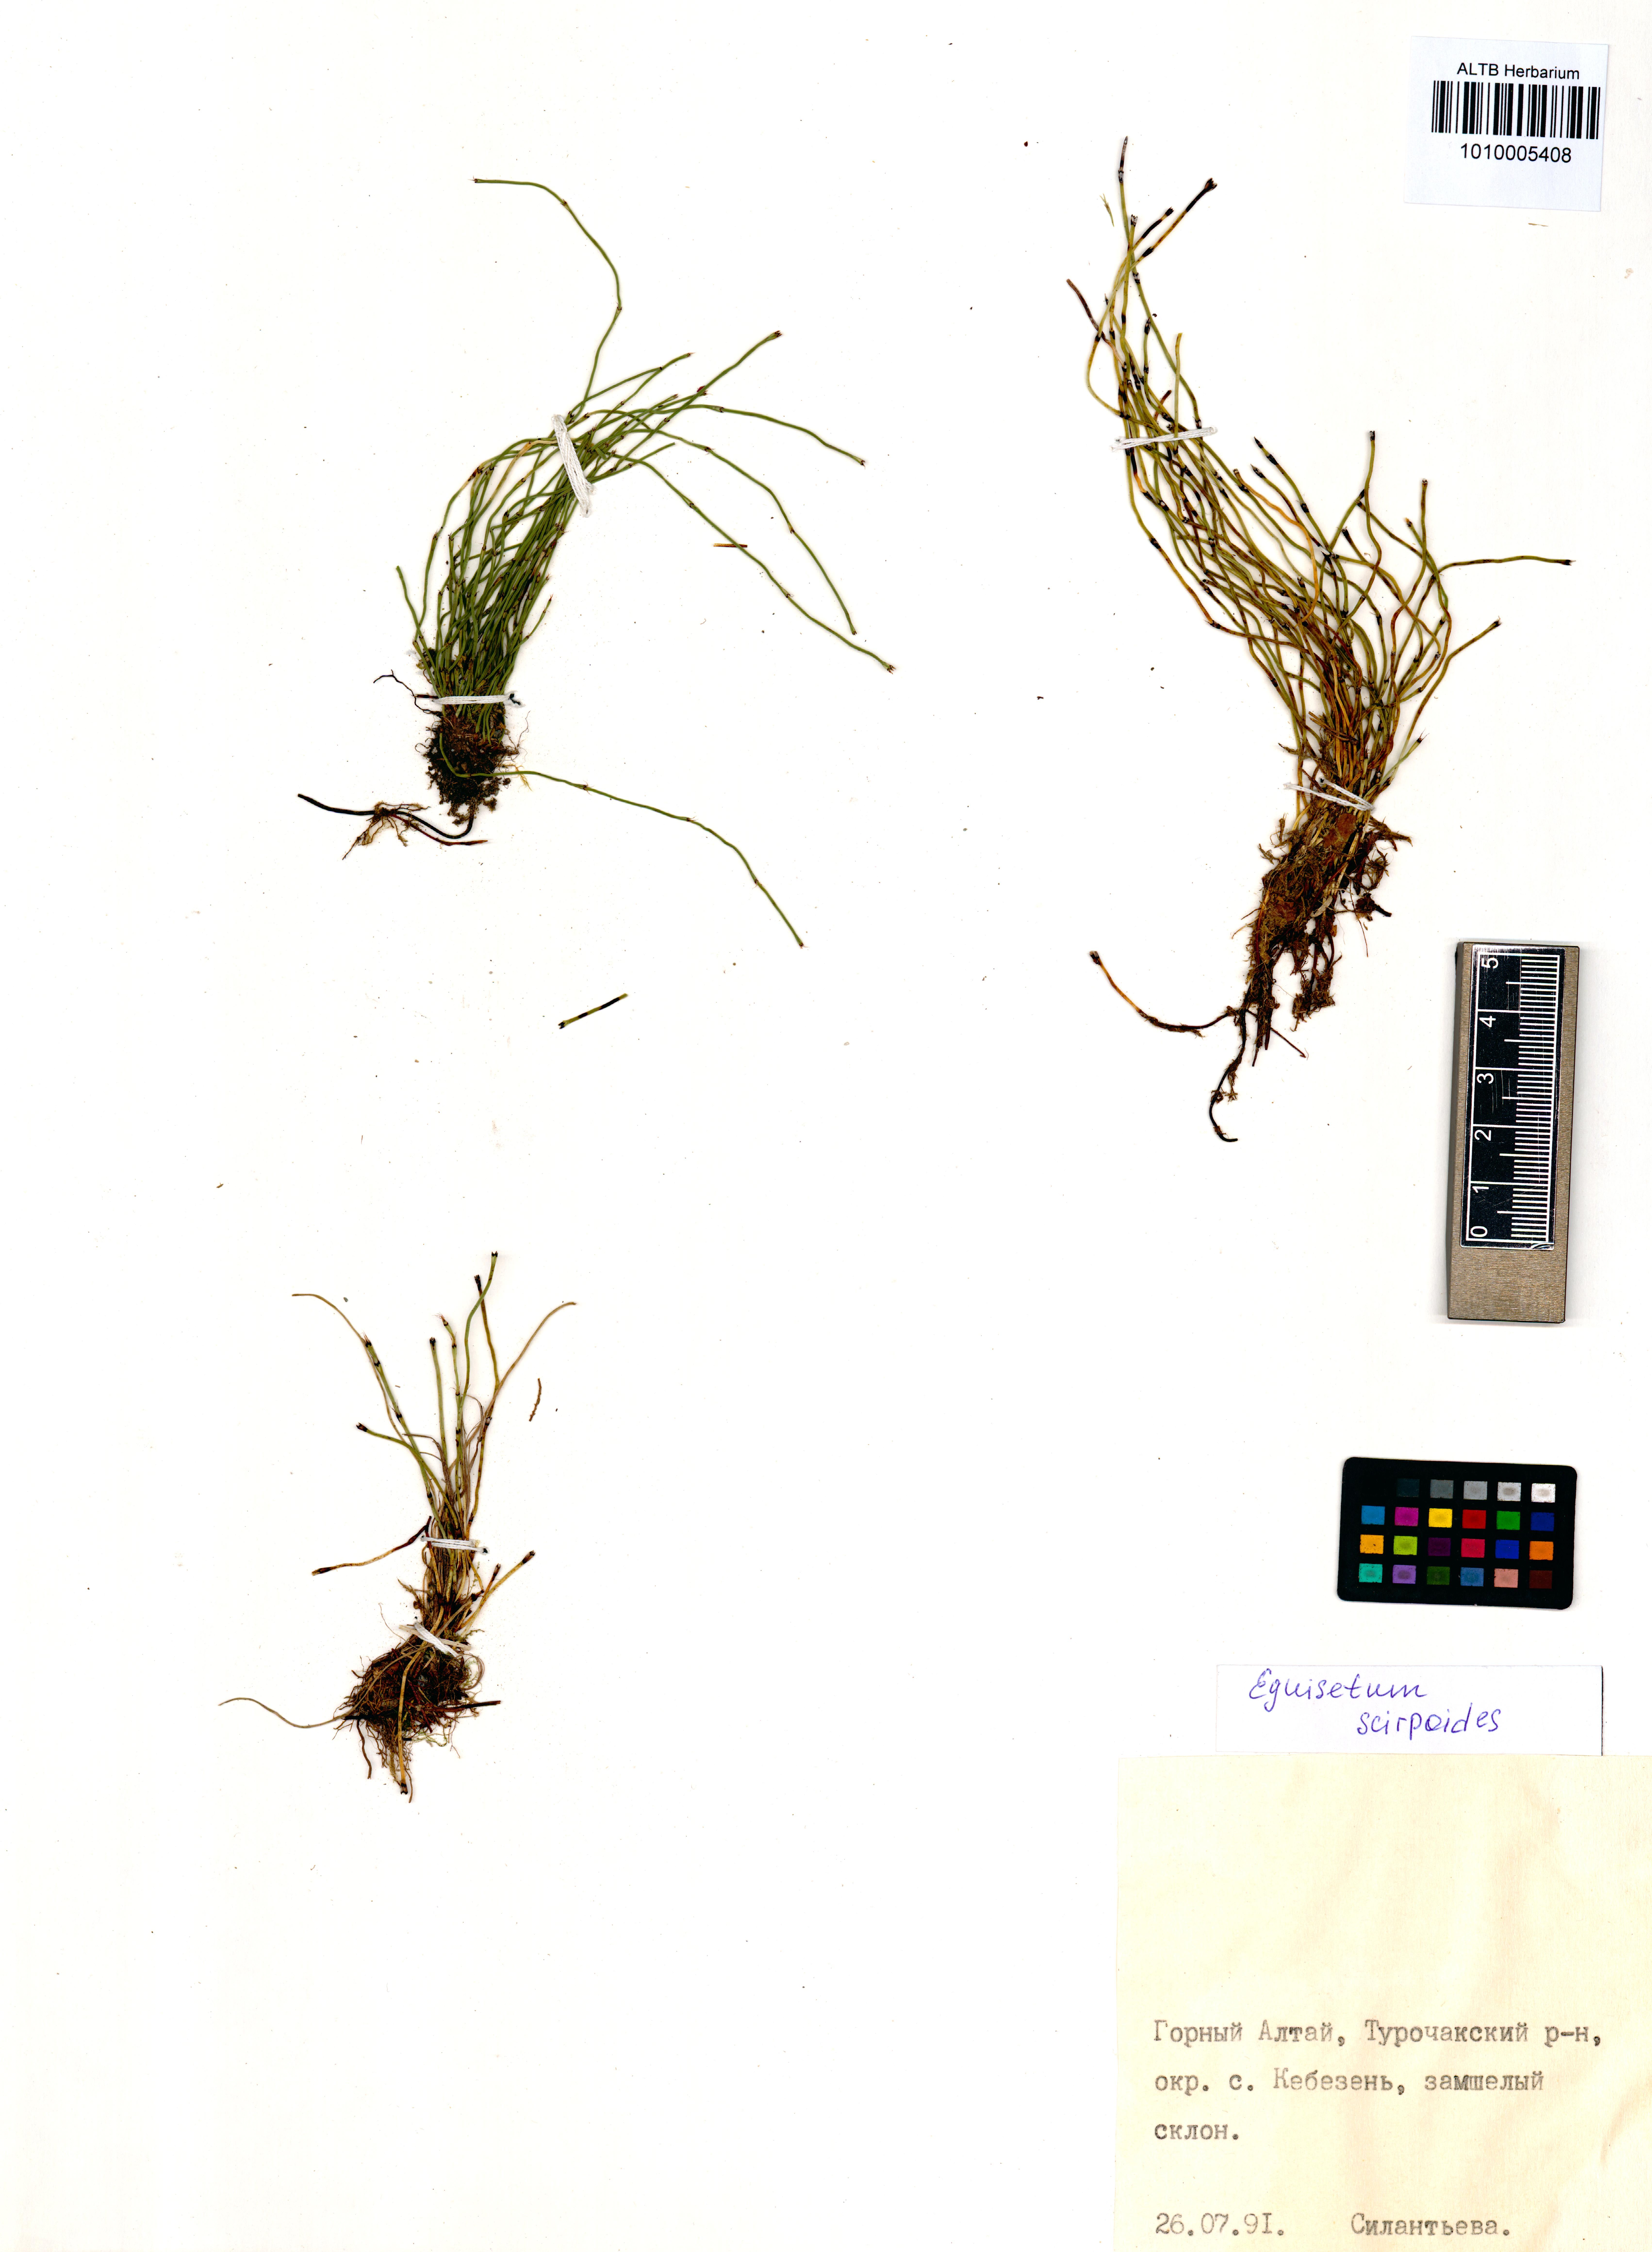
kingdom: Plantae
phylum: Tracheophyta
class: Polypodiopsida
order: Equisetales
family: Equisetaceae
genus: Equisetum
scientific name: Equisetum scirpoides
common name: Delicate horsetail
